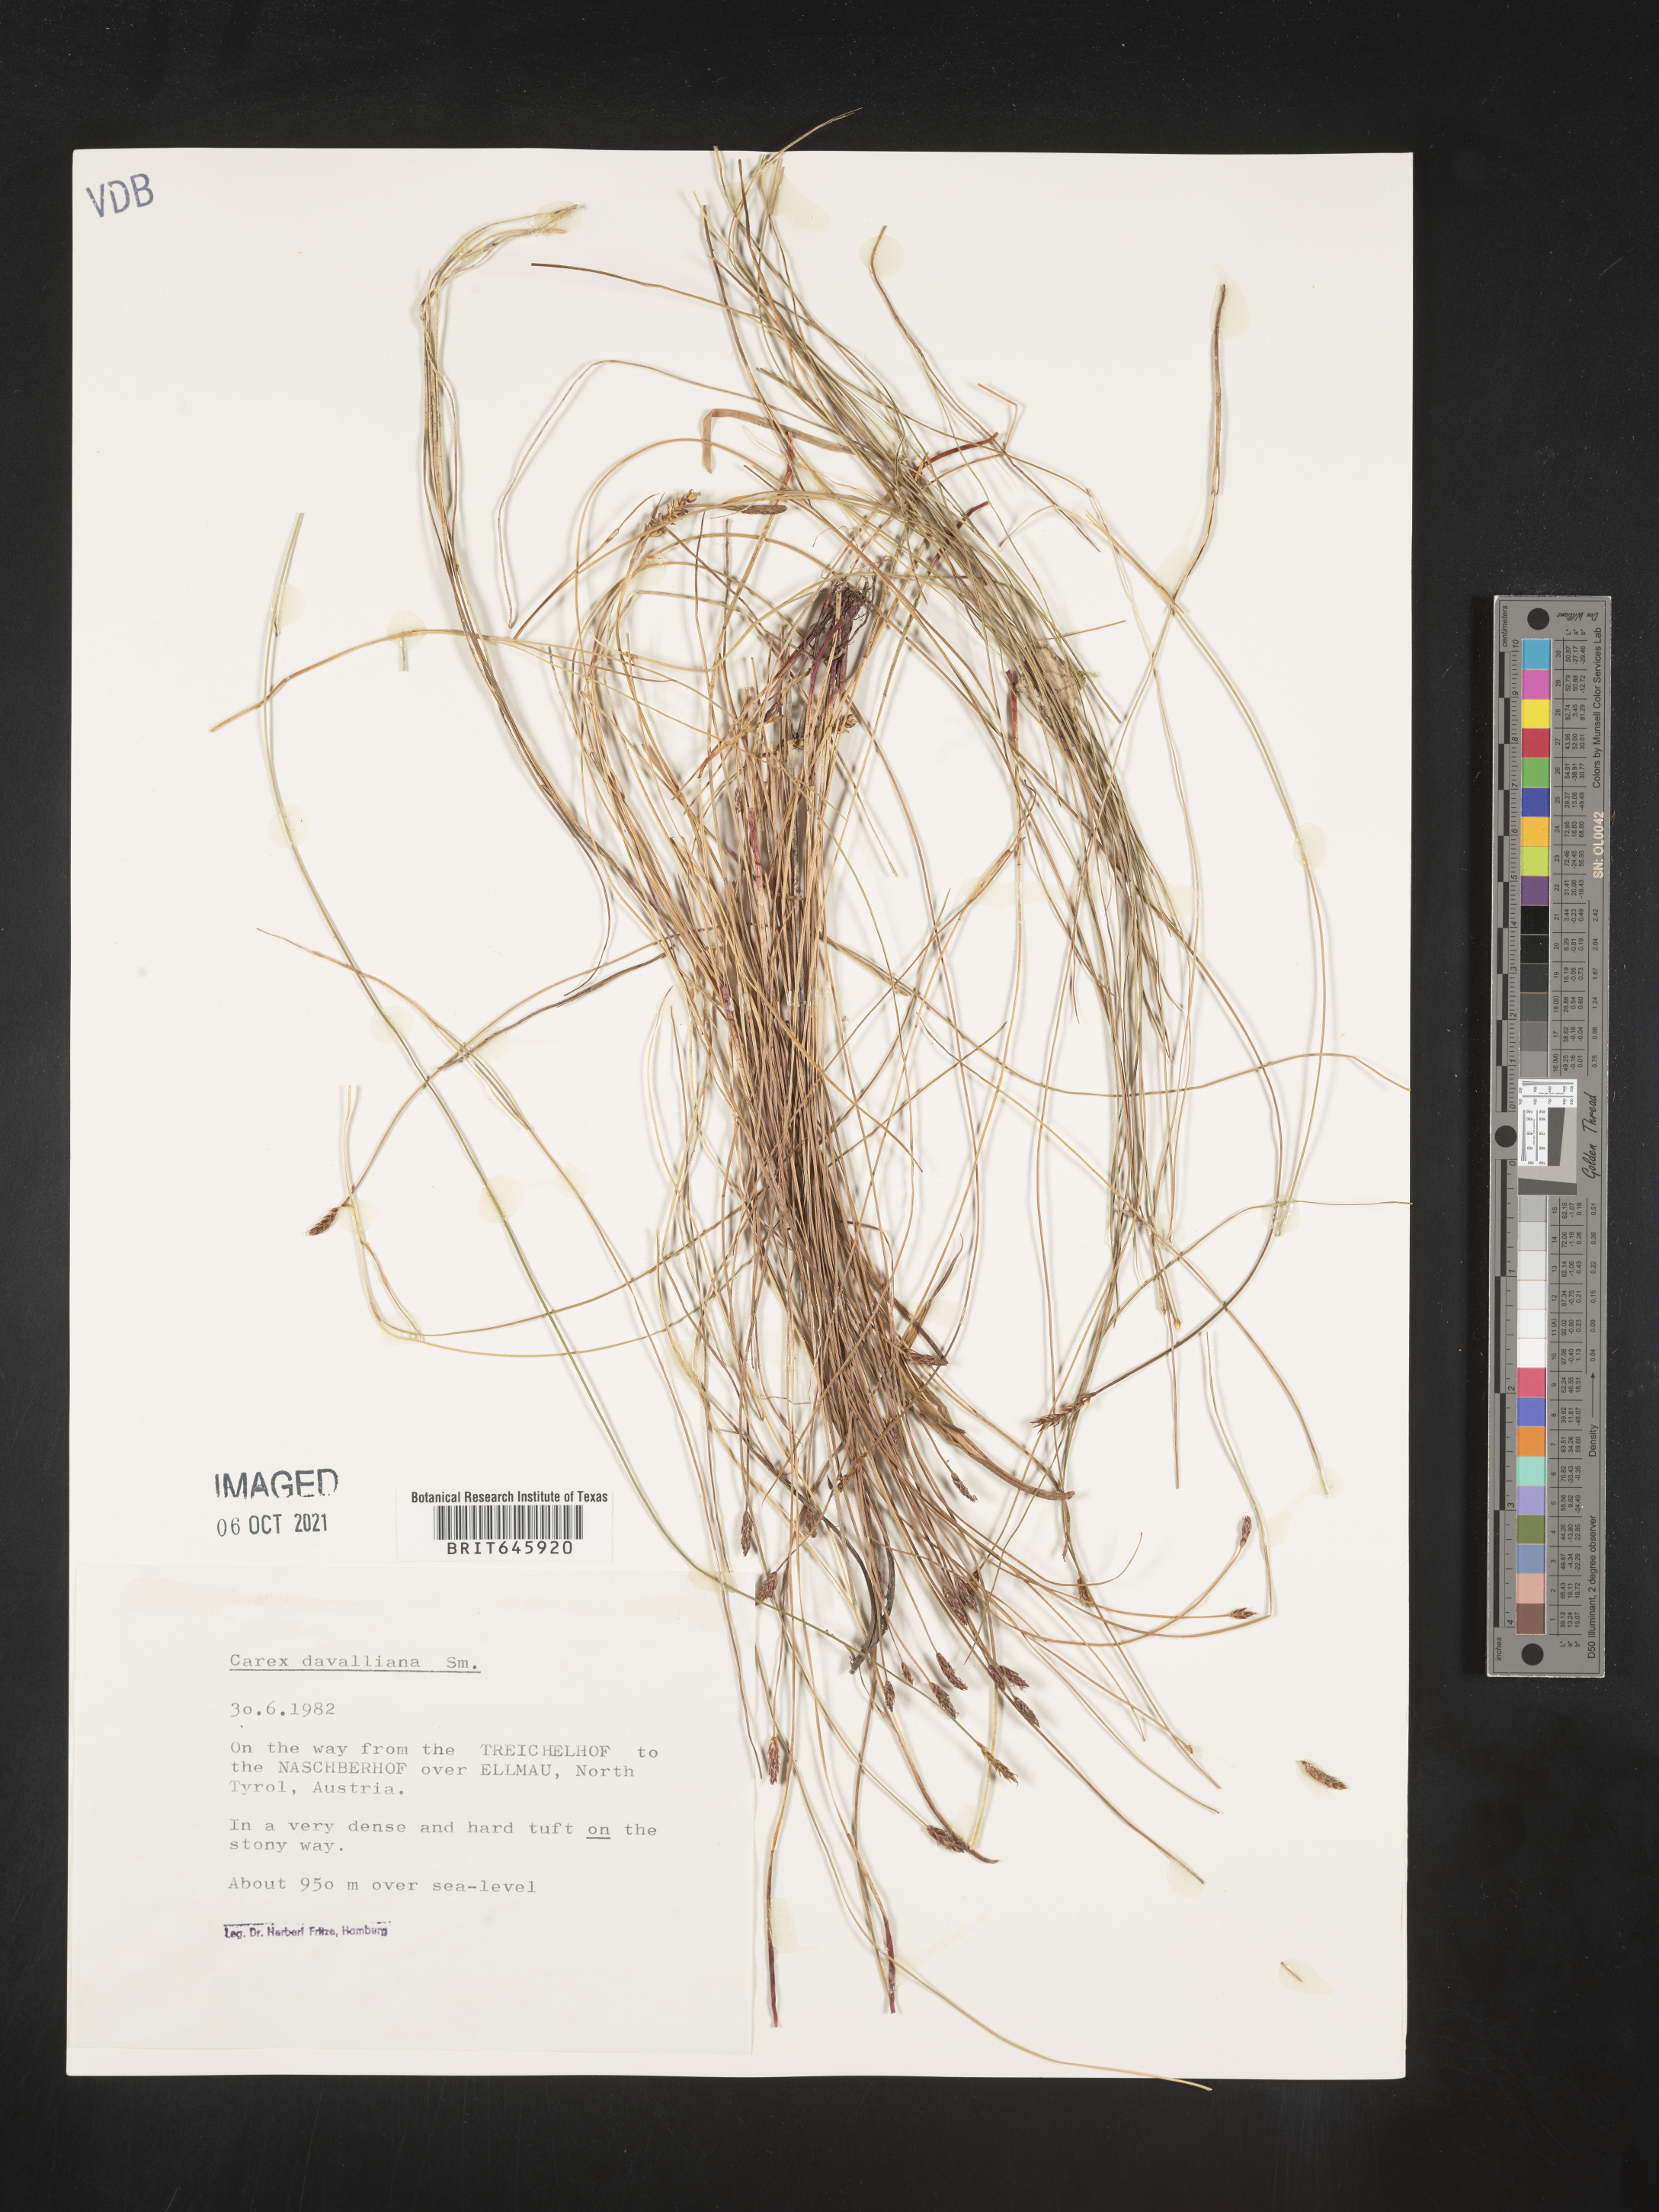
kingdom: Plantae
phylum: Tracheophyta
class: Liliopsida
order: Poales
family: Cyperaceae
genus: Carex
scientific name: Carex davalliana
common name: Davall's sedge
